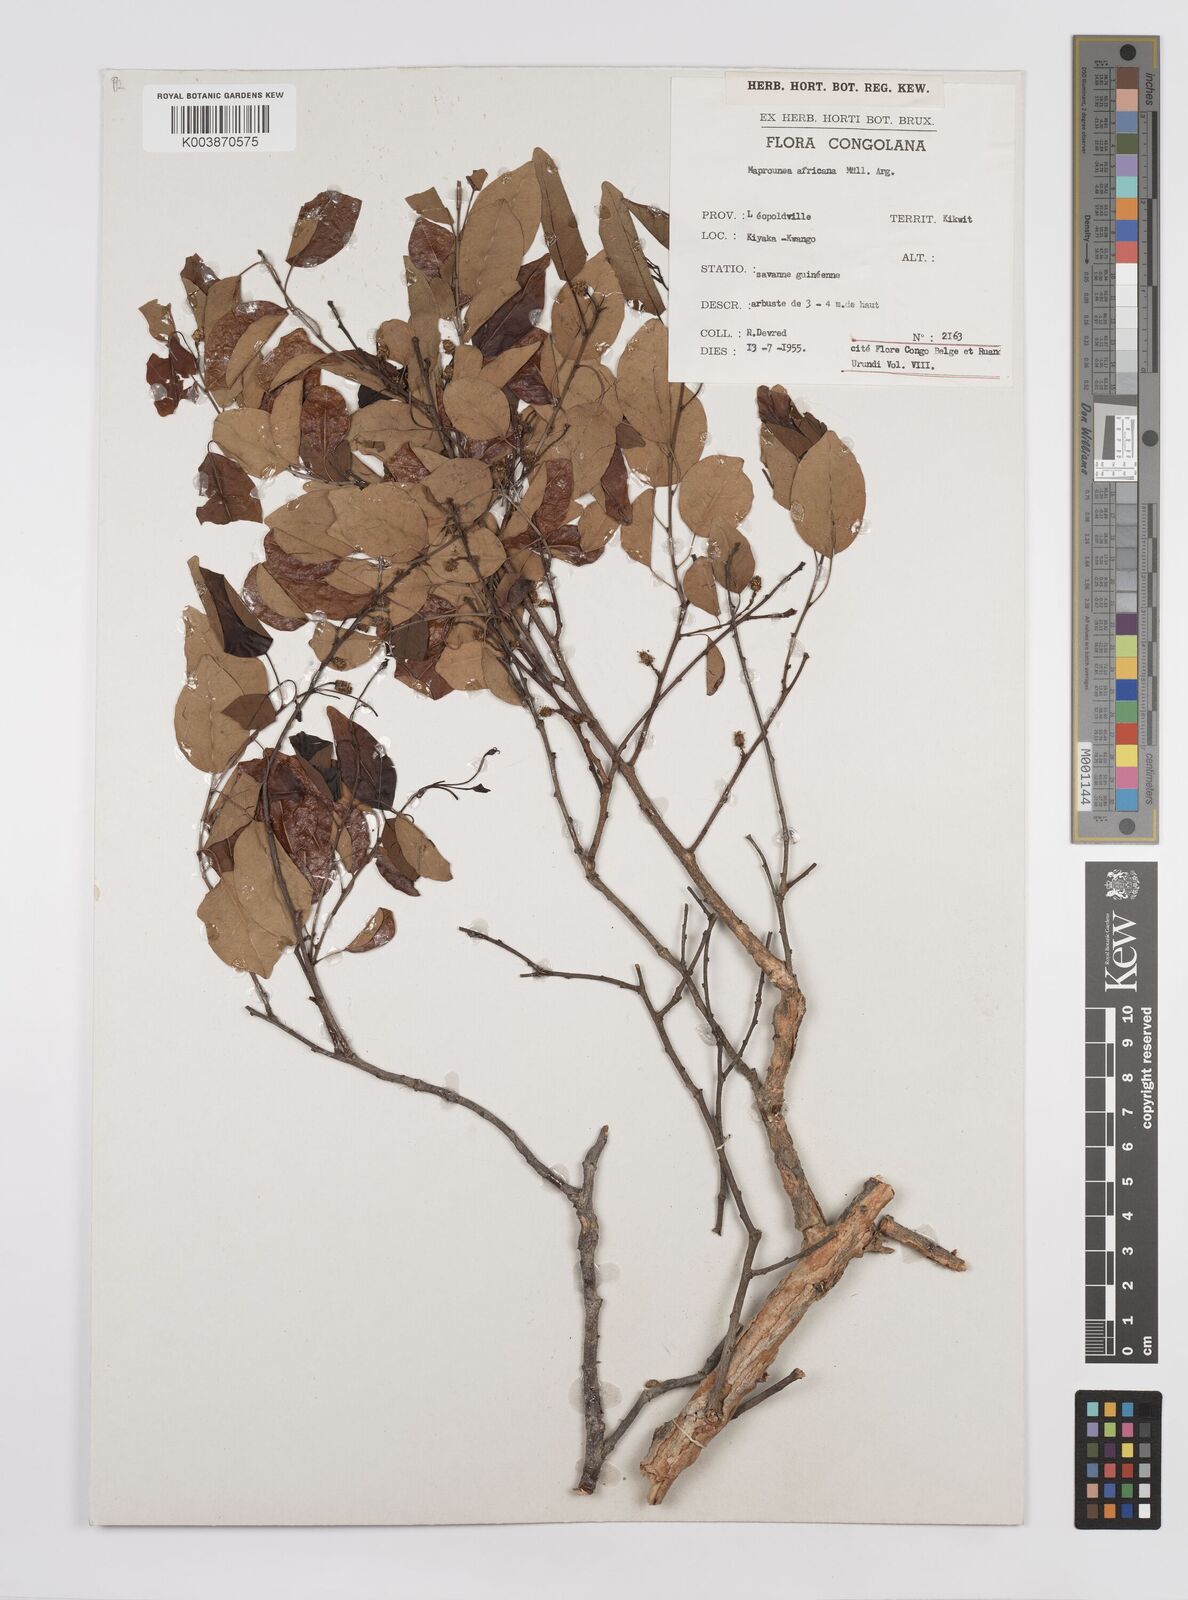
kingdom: Plantae
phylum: Tracheophyta
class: Magnoliopsida
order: Malpighiales
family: Euphorbiaceae
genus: Maprounea
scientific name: Maprounea africana
